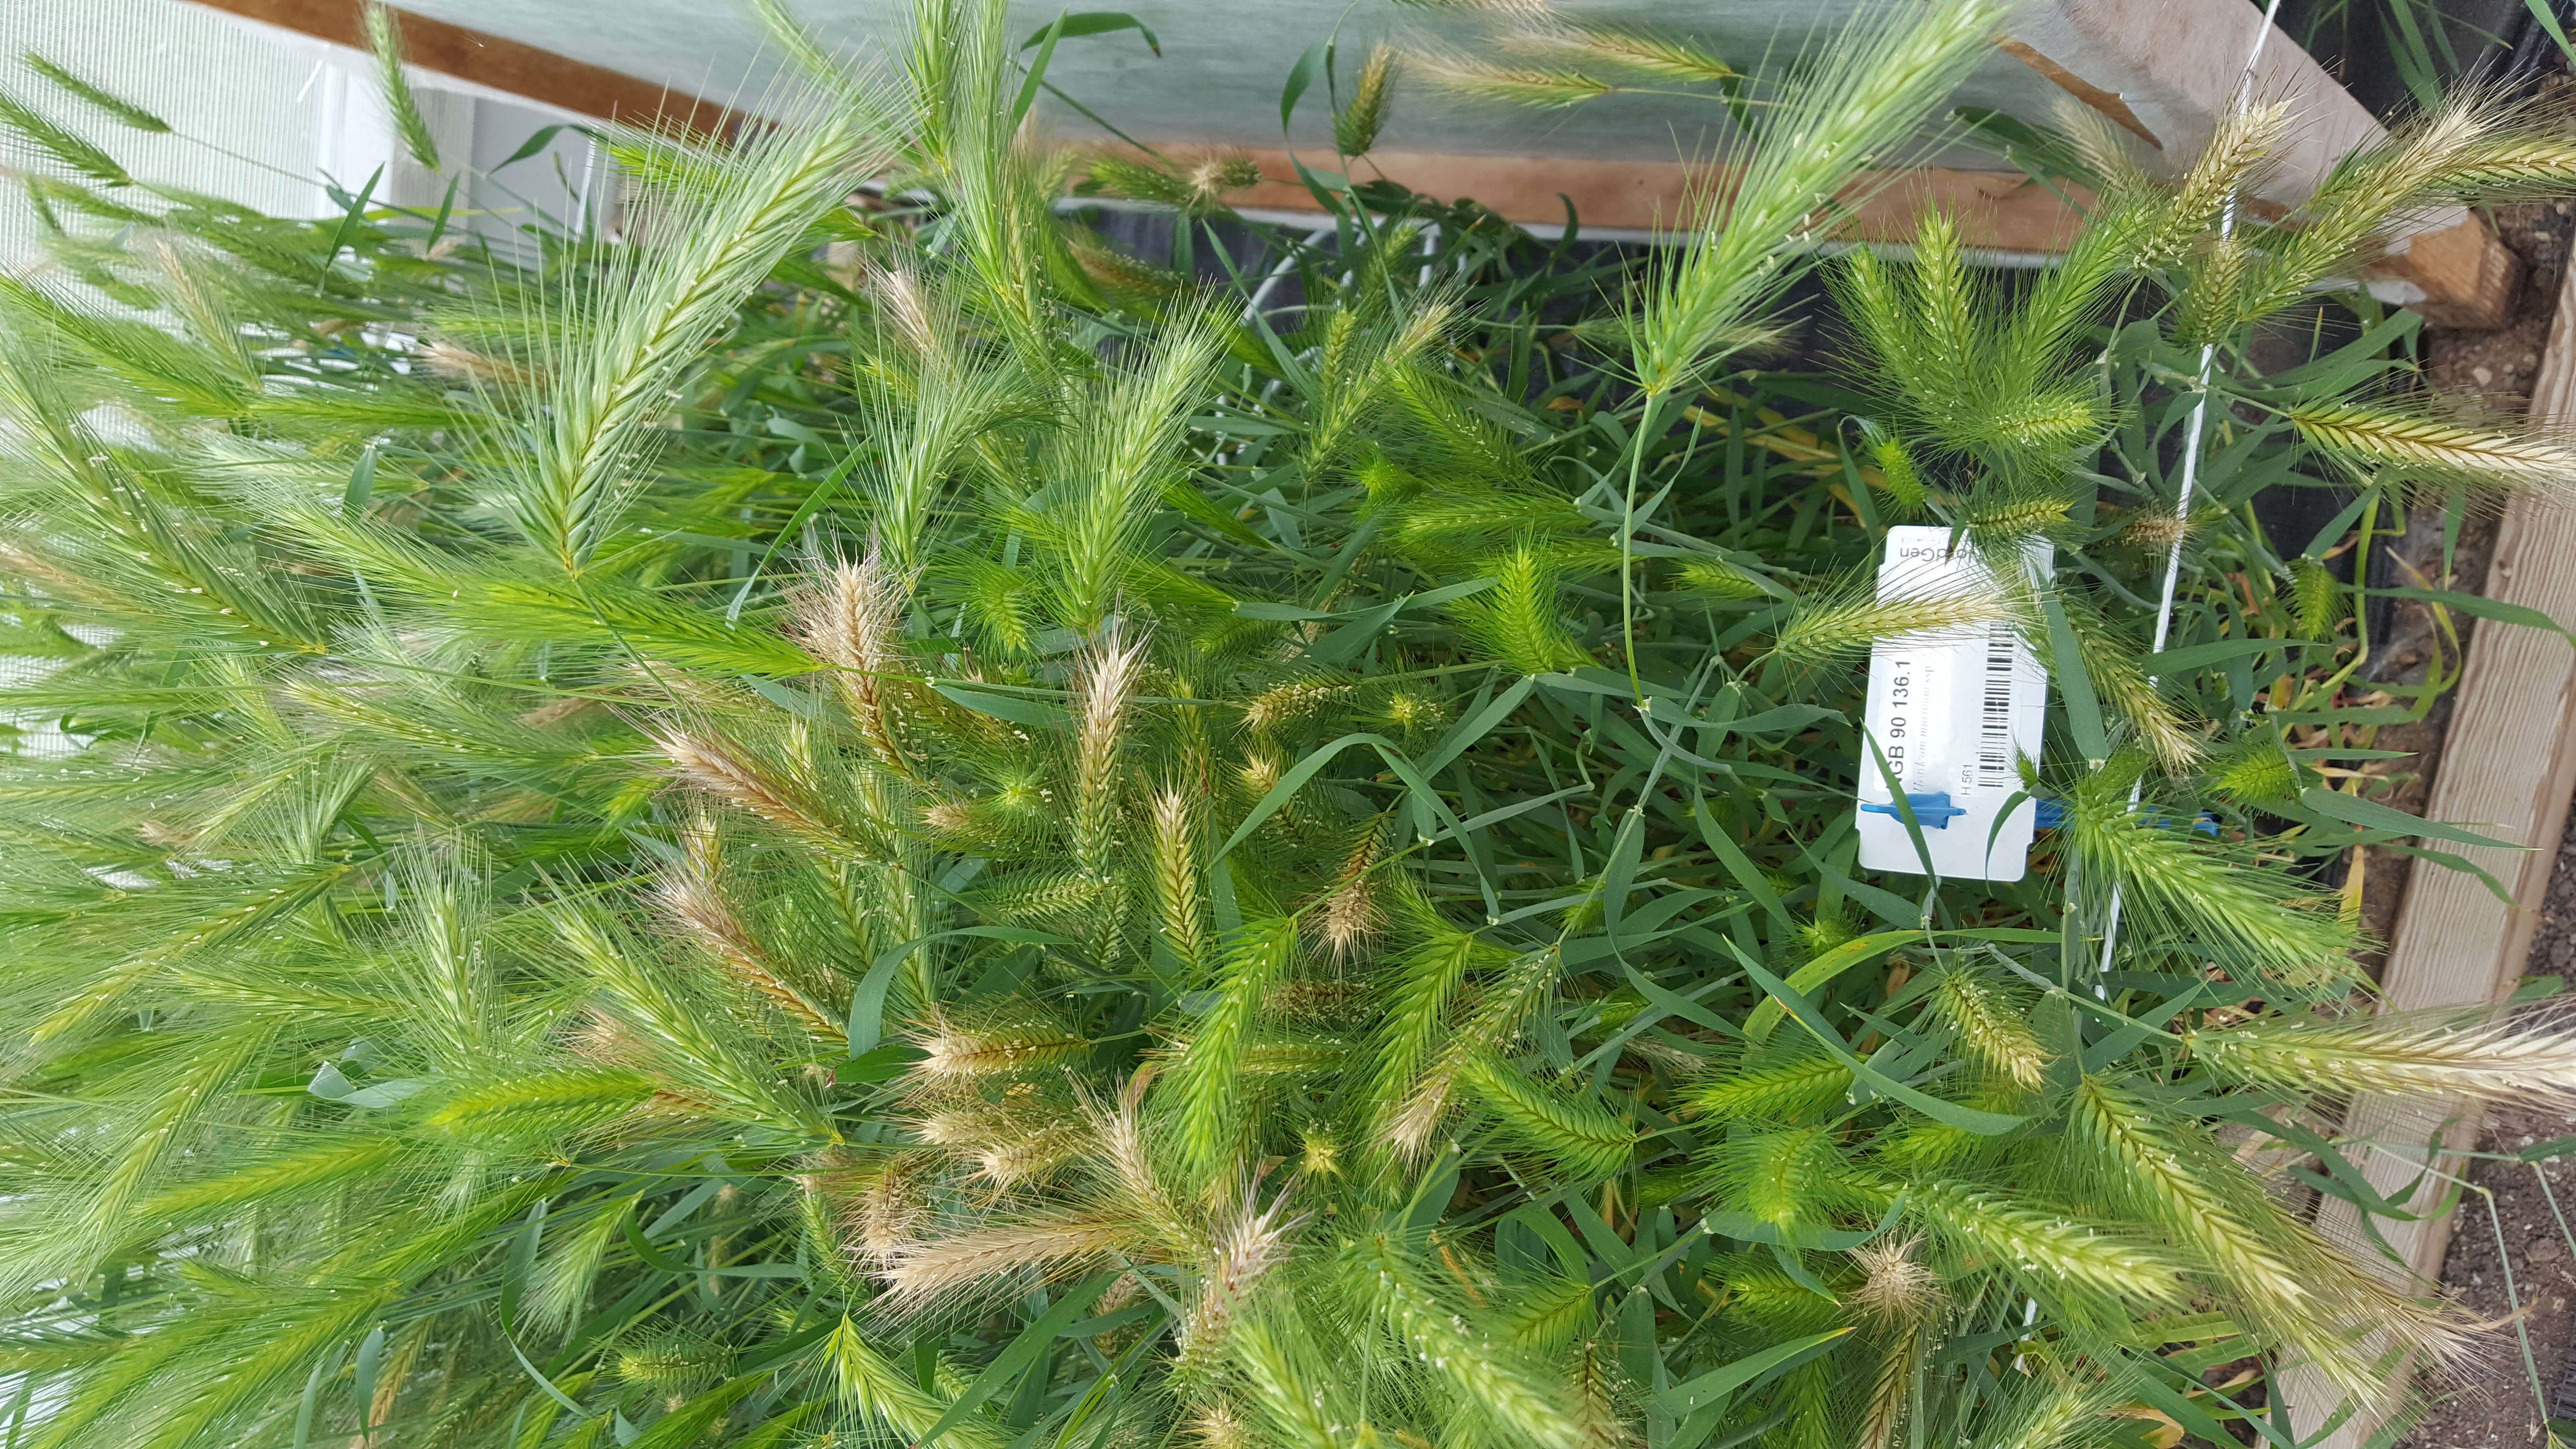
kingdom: Plantae
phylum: Tracheophyta
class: Liliopsida
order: Poales
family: Poaceae
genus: Hordeum
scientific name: Hordeum murinum
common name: Wall barley
